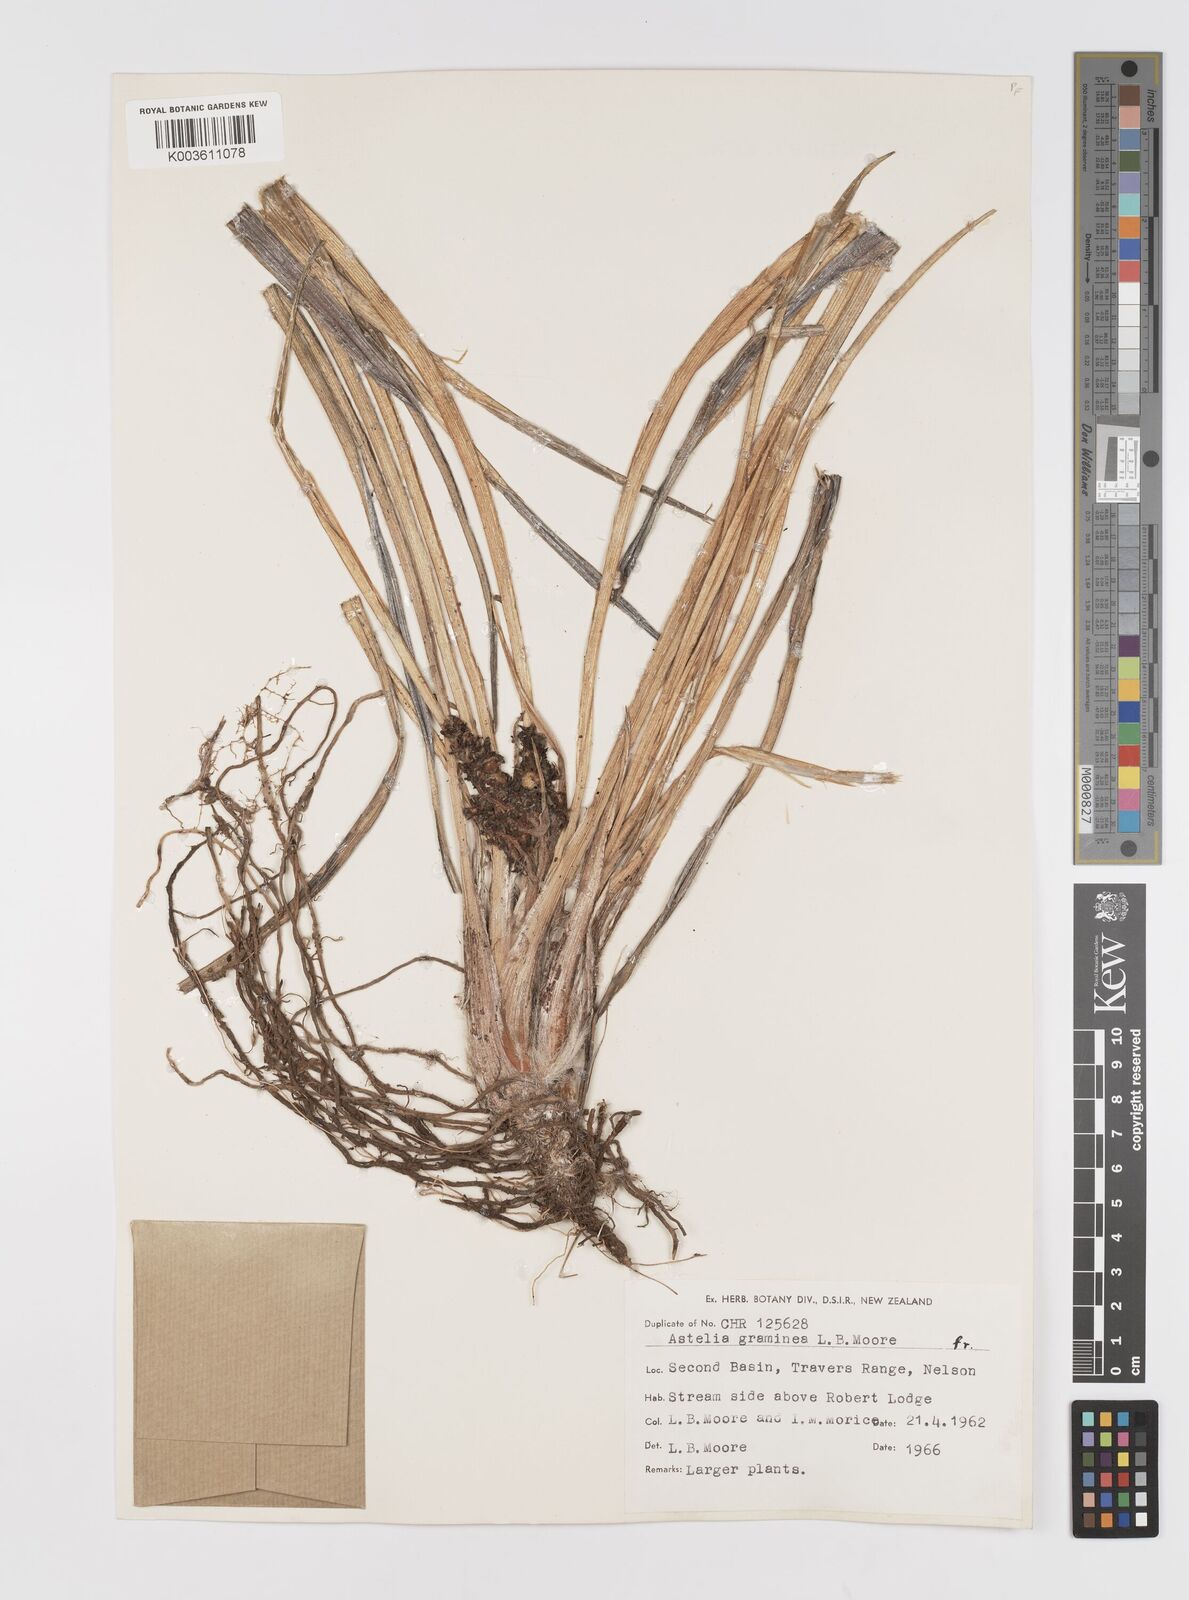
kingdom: Plantae
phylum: Tracheophyta
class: Liliopsida
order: Asparagales
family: Asteliaceae
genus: Astelia
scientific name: Astelia
